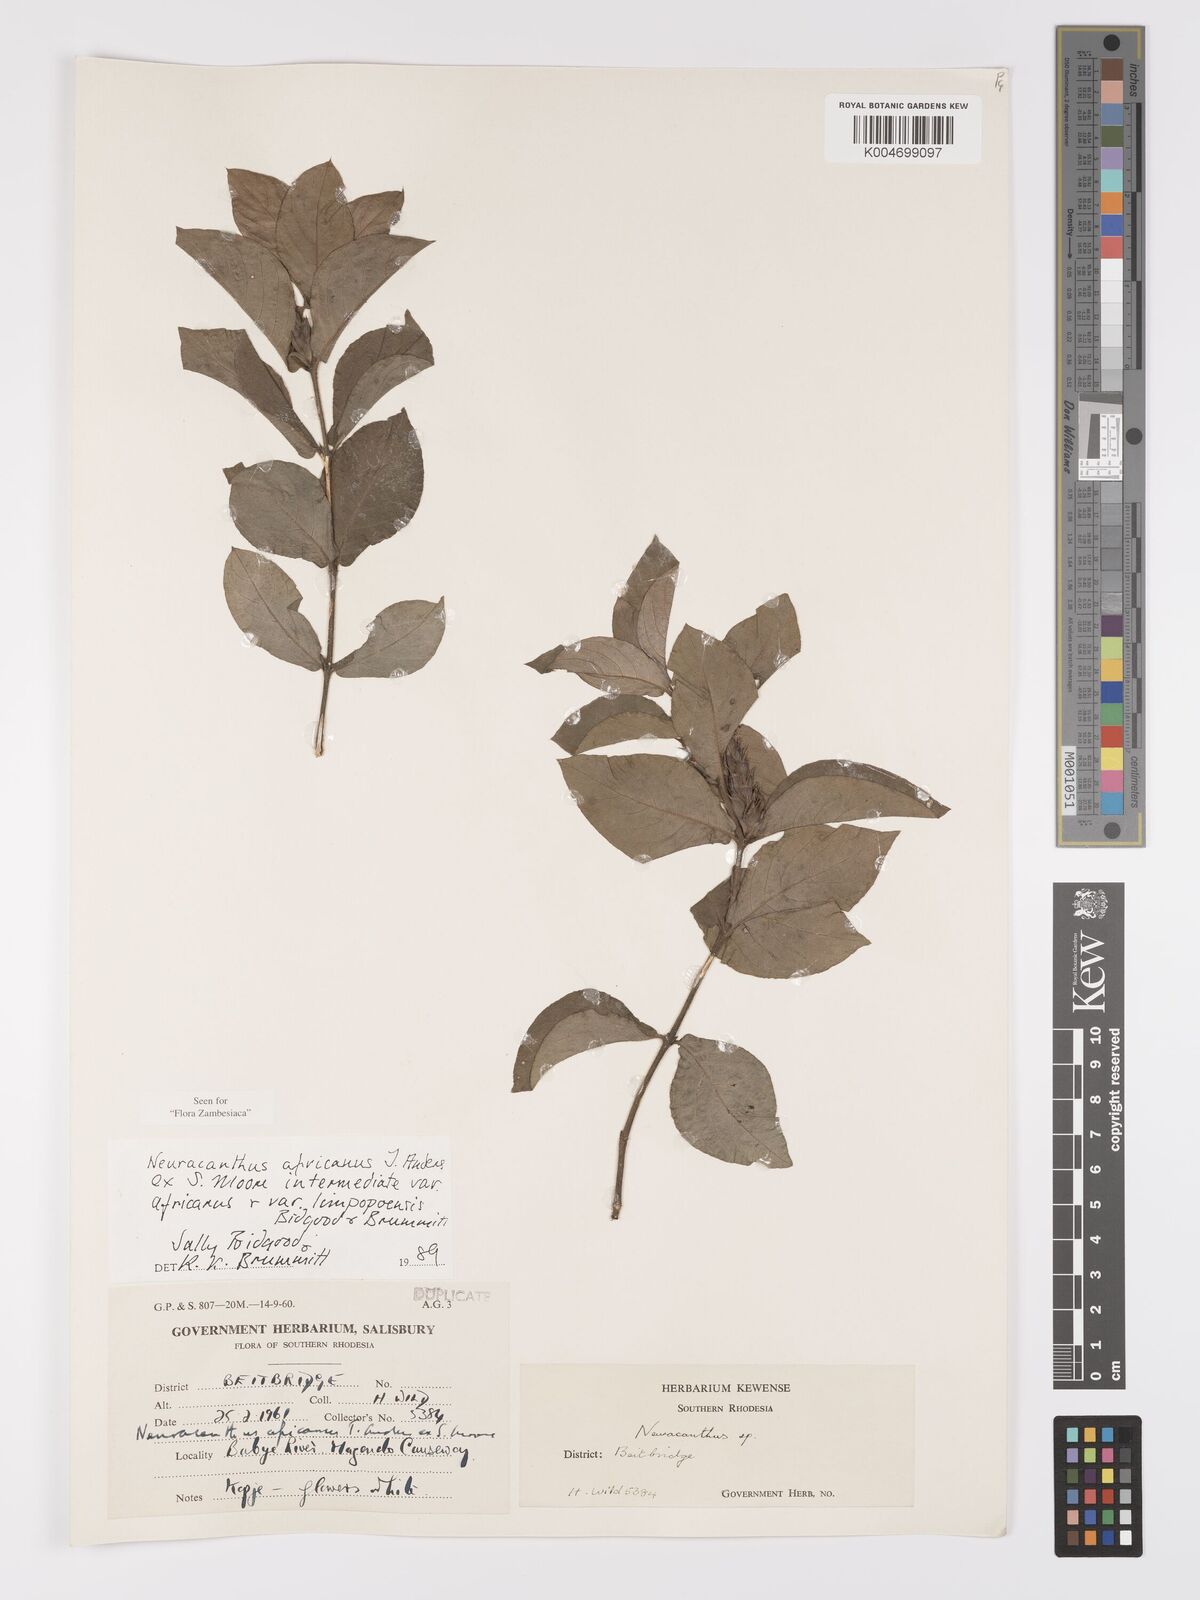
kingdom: Plantae
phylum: Tracheophyta
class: Magnoliopsida
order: Lamiales
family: Acanthaceae
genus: Neuracanthus
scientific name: Neuracanthus africanus
